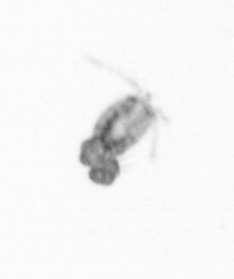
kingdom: Animalia
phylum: Arthropoda
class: Copepoda
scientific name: Copepoda
